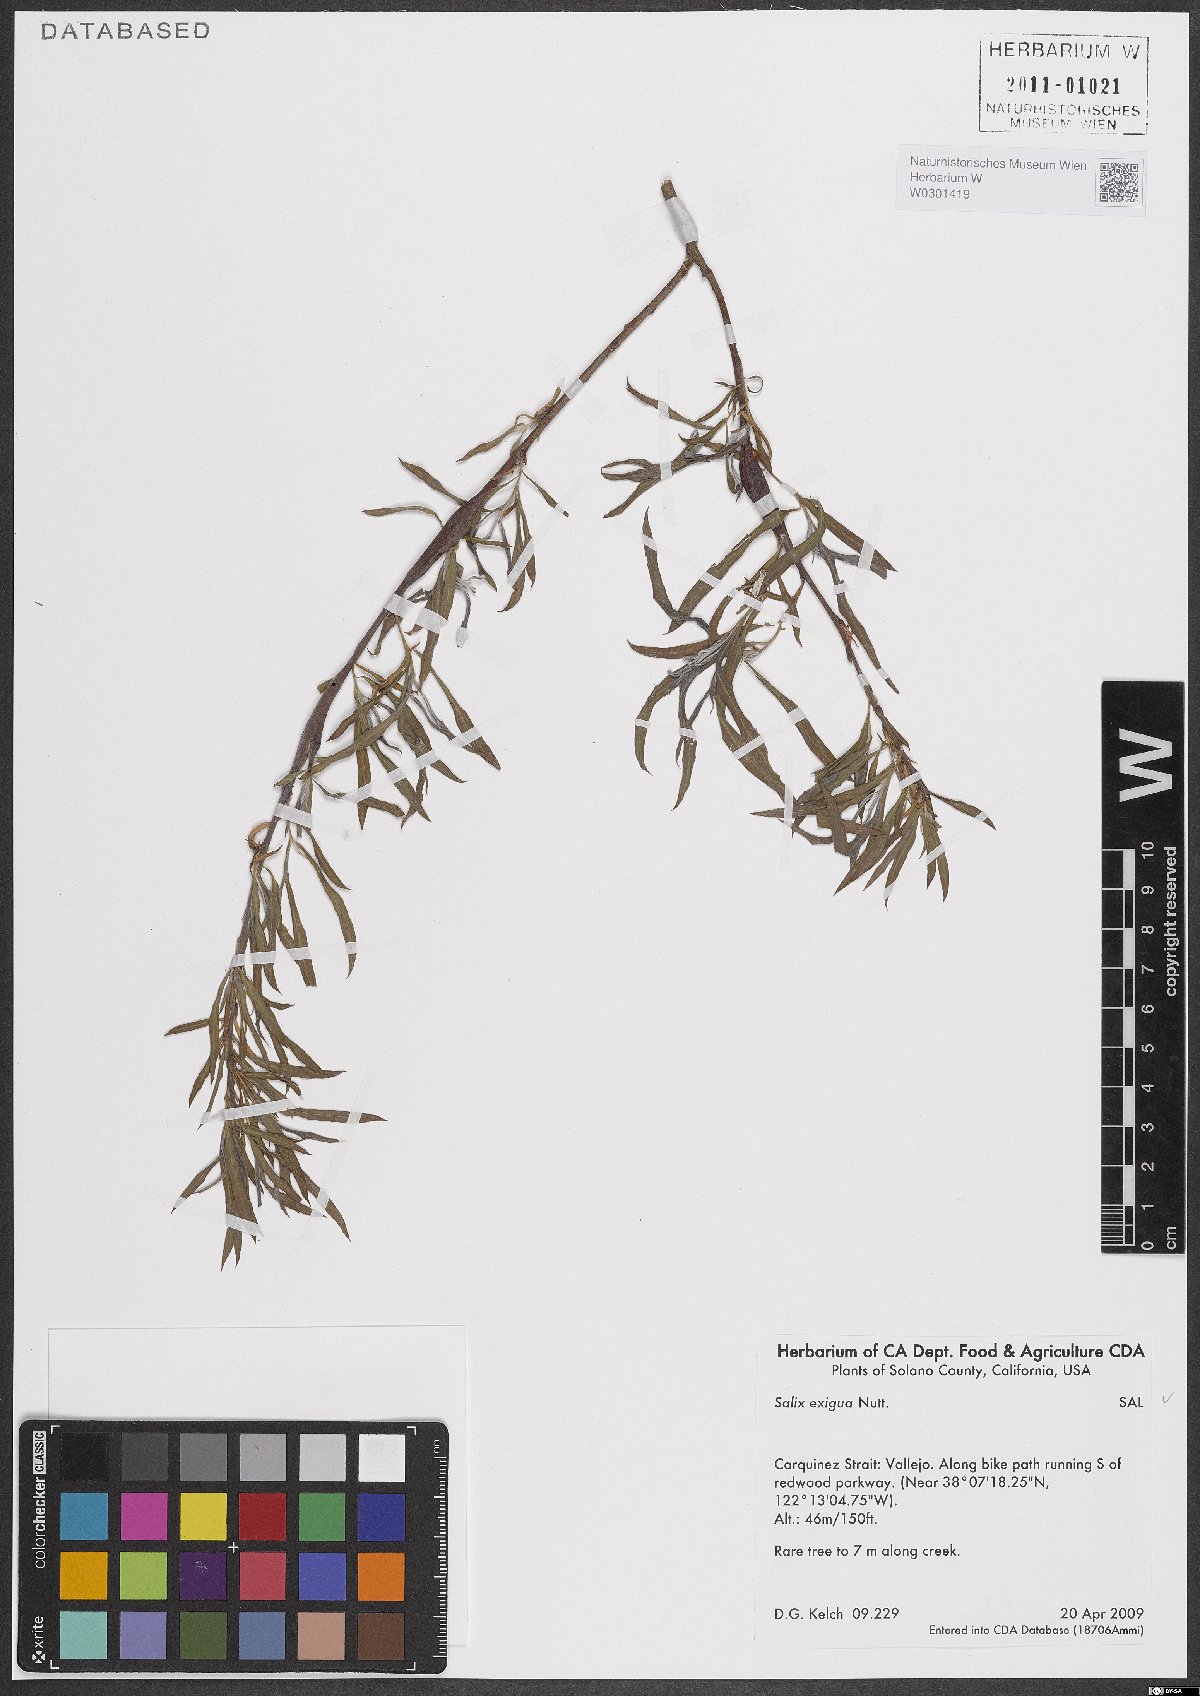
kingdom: Plantae
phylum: Tracheophyta
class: Magnoliopsida
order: Malpighiales
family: Salicaceae
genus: Salix
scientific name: Salix exigua
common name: Coyote willow
